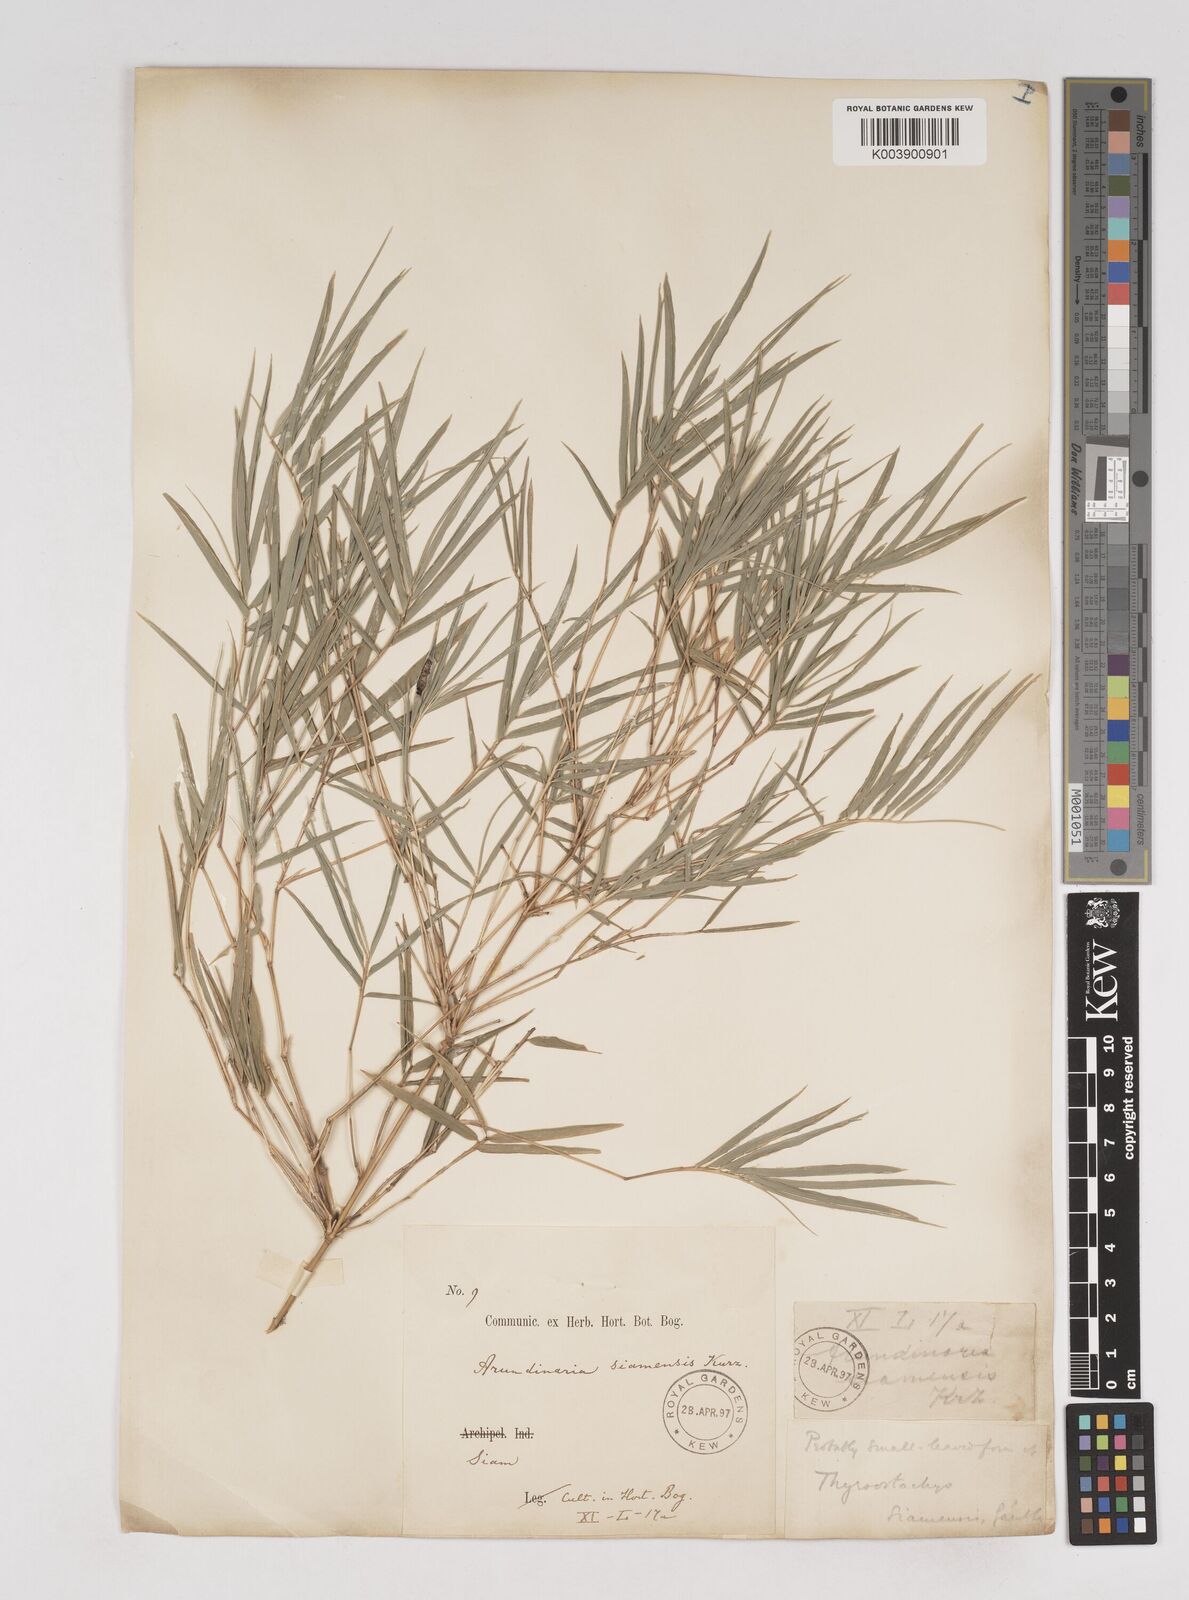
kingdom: Plantae
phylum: Tracheophyta
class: Liliopsida
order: Poales
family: Poaceae
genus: Thyrsostachys
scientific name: Thyrsostachys siamensis
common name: Thailand bamboo
